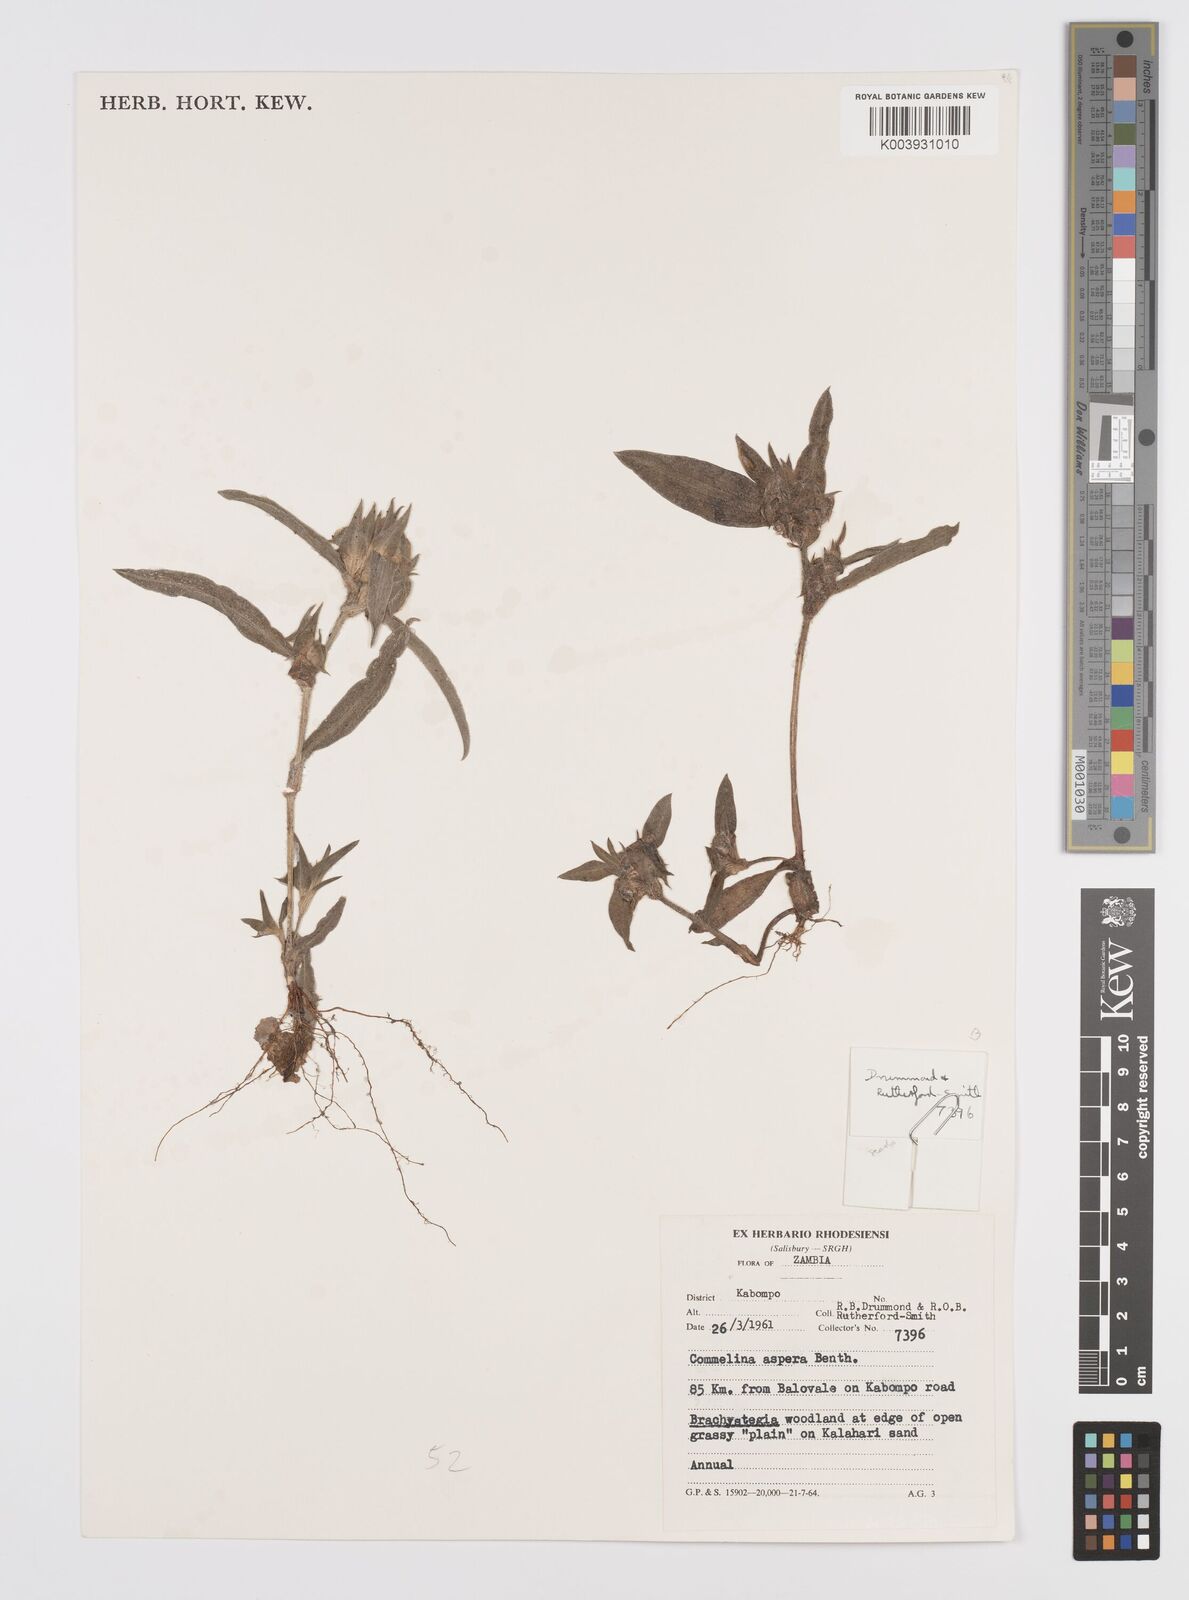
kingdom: Plantae
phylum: Tracheophyta
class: Liliopsida
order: Commelinales
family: Commelinaceae
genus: Commelina
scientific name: Commelina aspera
